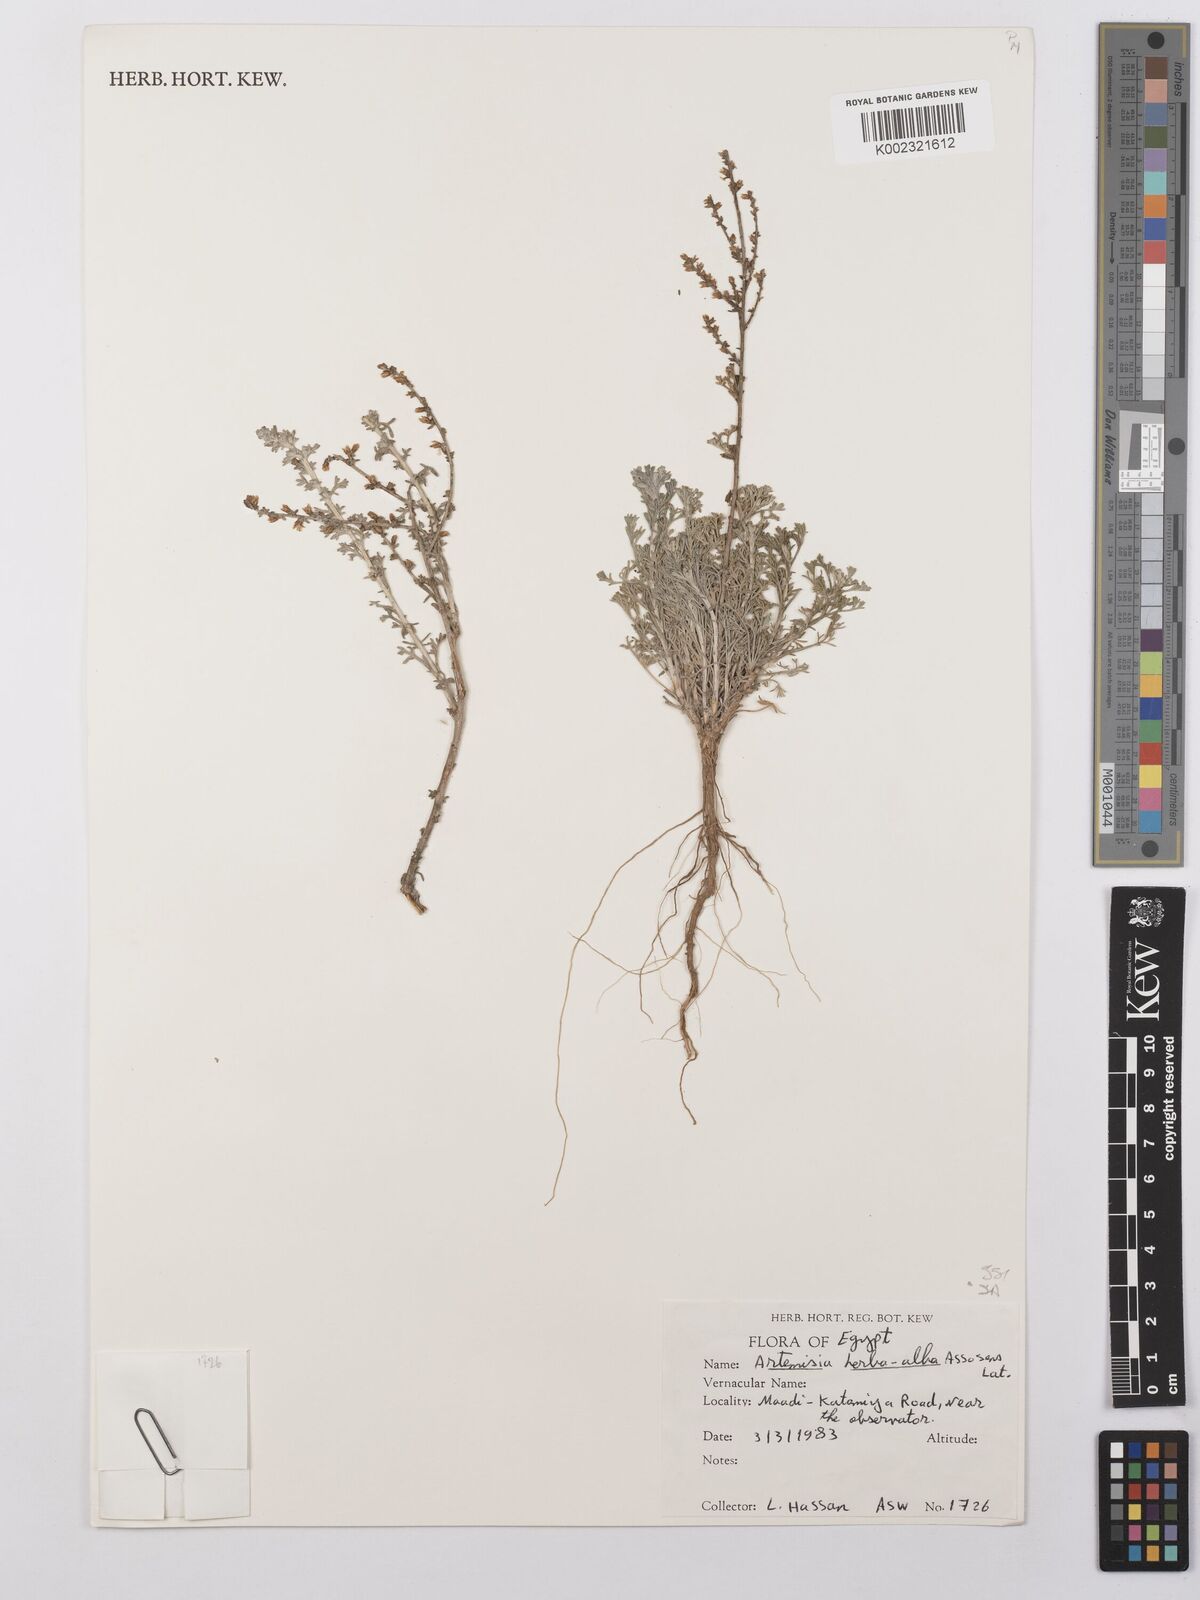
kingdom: Plantae
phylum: Tracheophyta
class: Magnoliopsida
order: Asterales
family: Asteraceae
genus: Artemisia
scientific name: Artemisia herba-alba
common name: White wormwood
